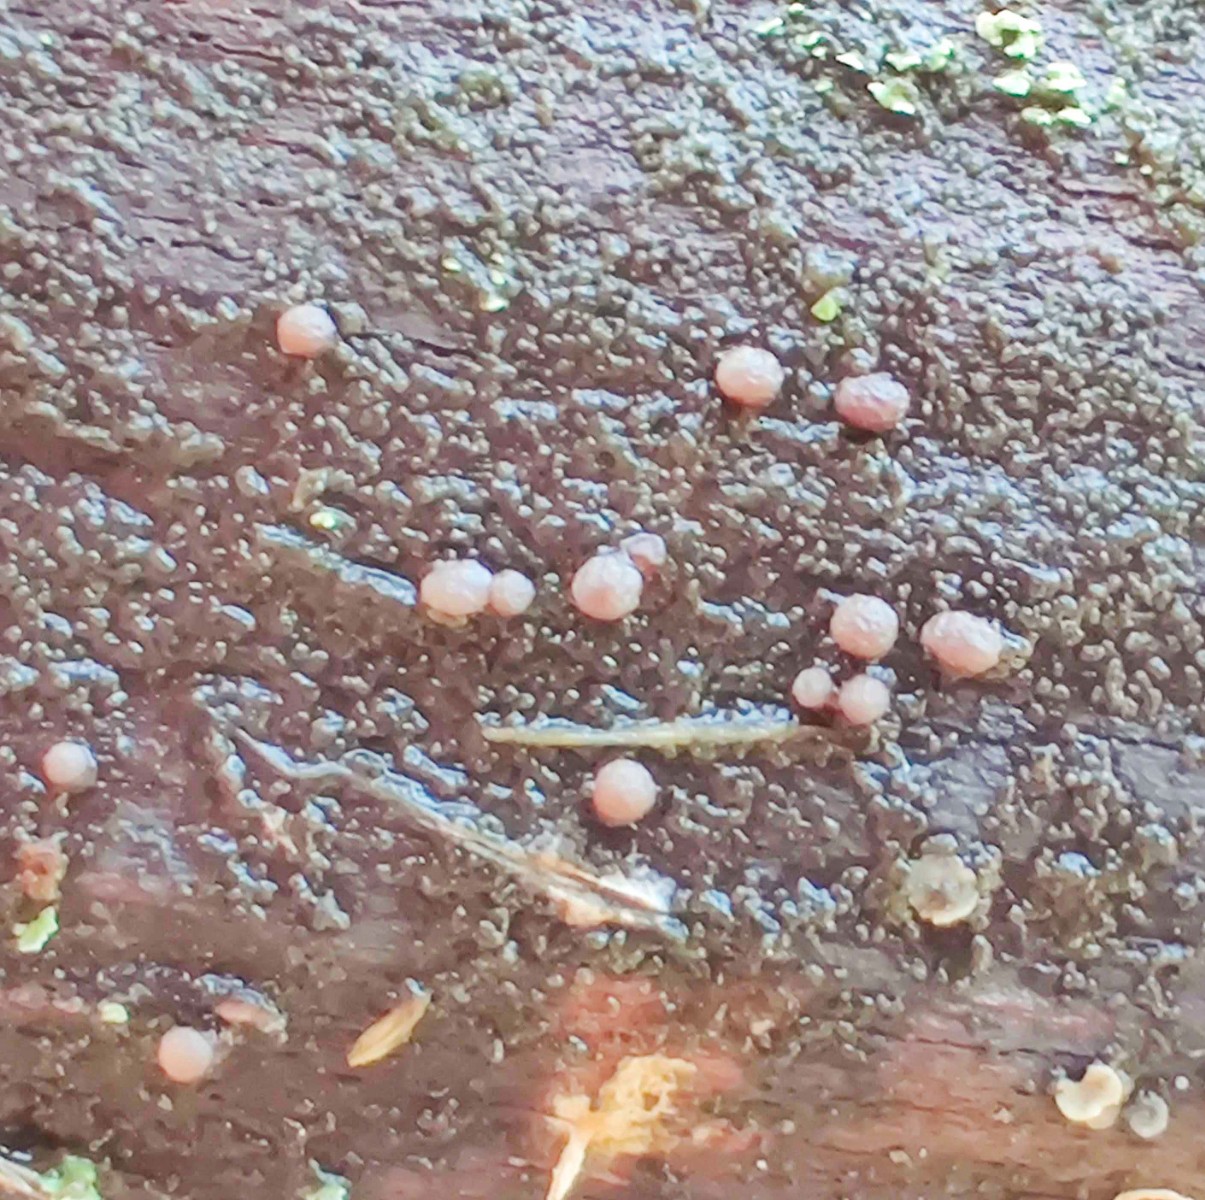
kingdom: Fungi
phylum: Ascomycota
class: Leotiomycetes
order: Helotiales
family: Gelatinodiscaceae
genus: Ascocoryne
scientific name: Ascocoryne albida
